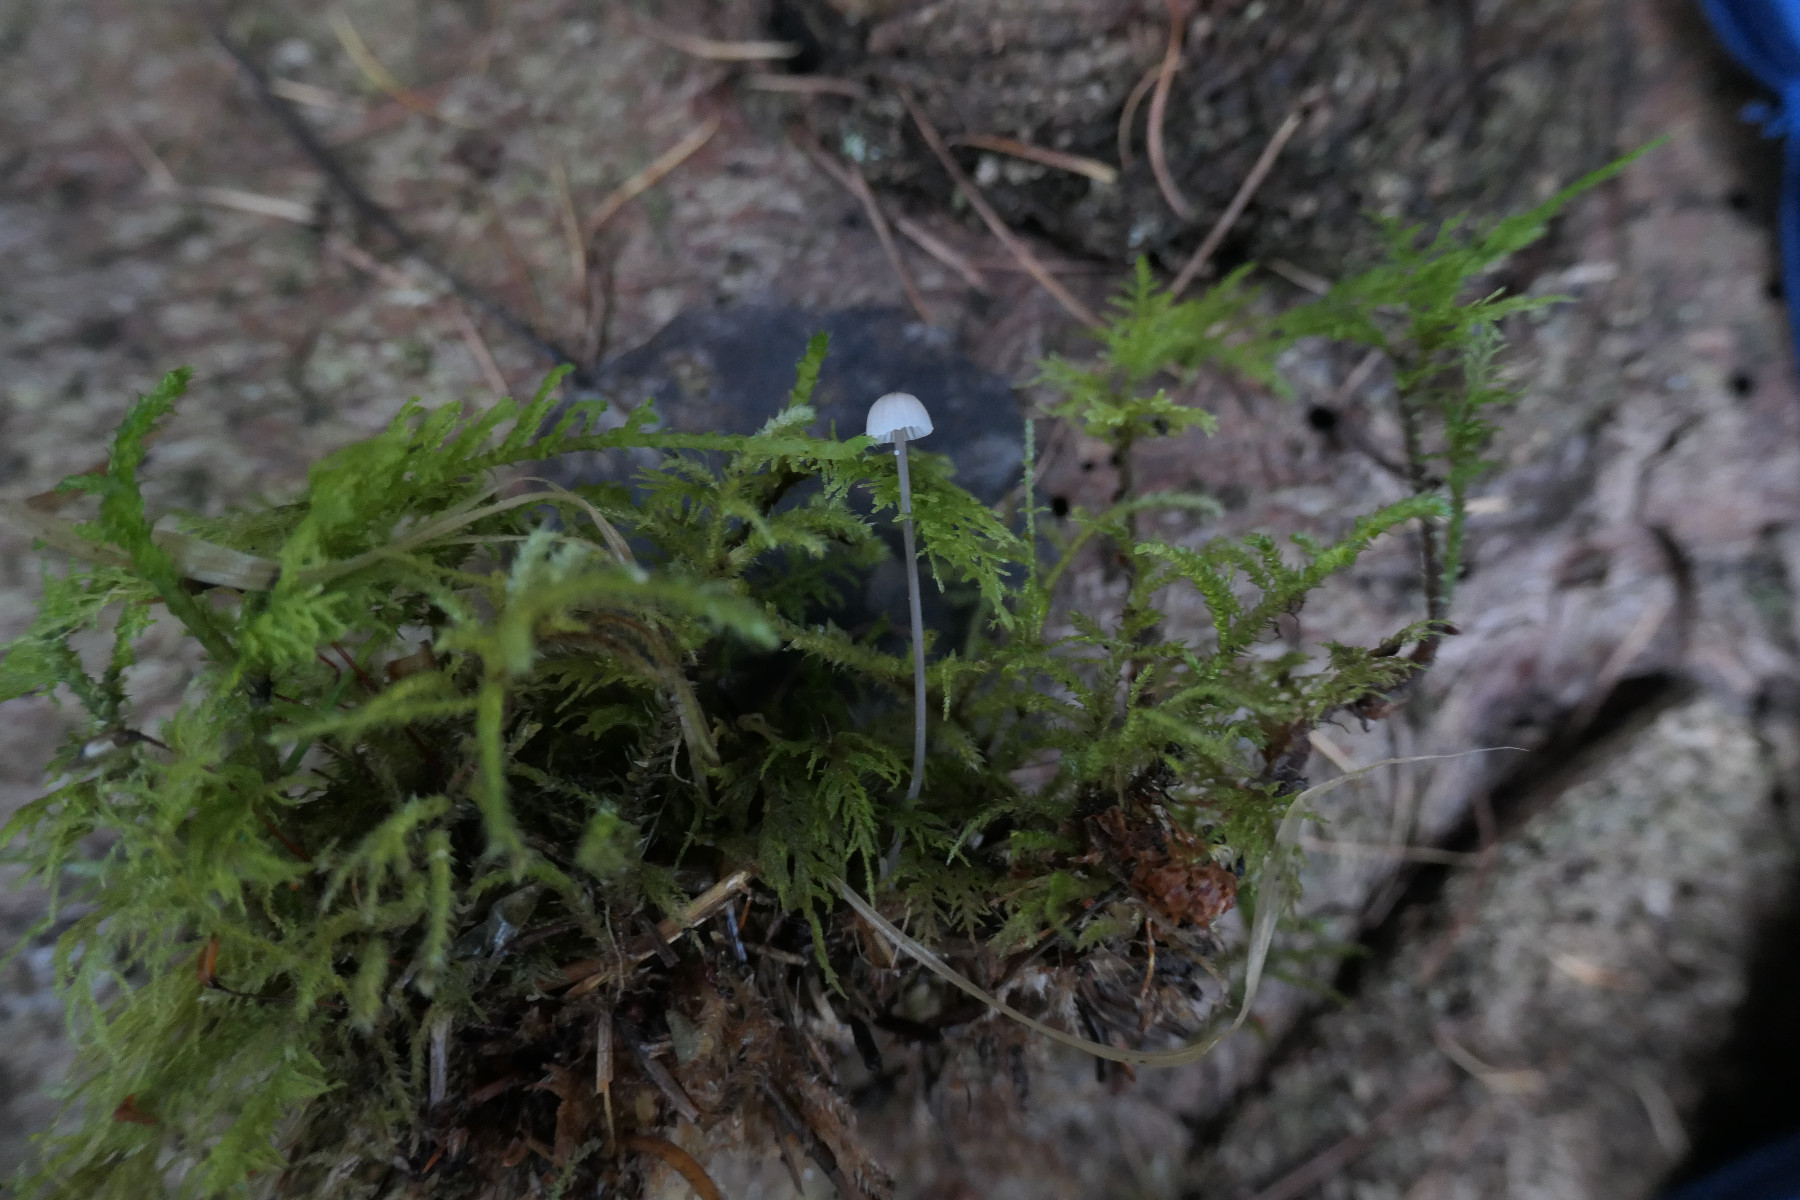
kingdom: Fungi
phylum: Basidiomycota
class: Agaricomycetes
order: Agaricales
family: Mycenaceae
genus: Mycena
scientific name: Mycena galopus
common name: hvidmælket huesvamp
